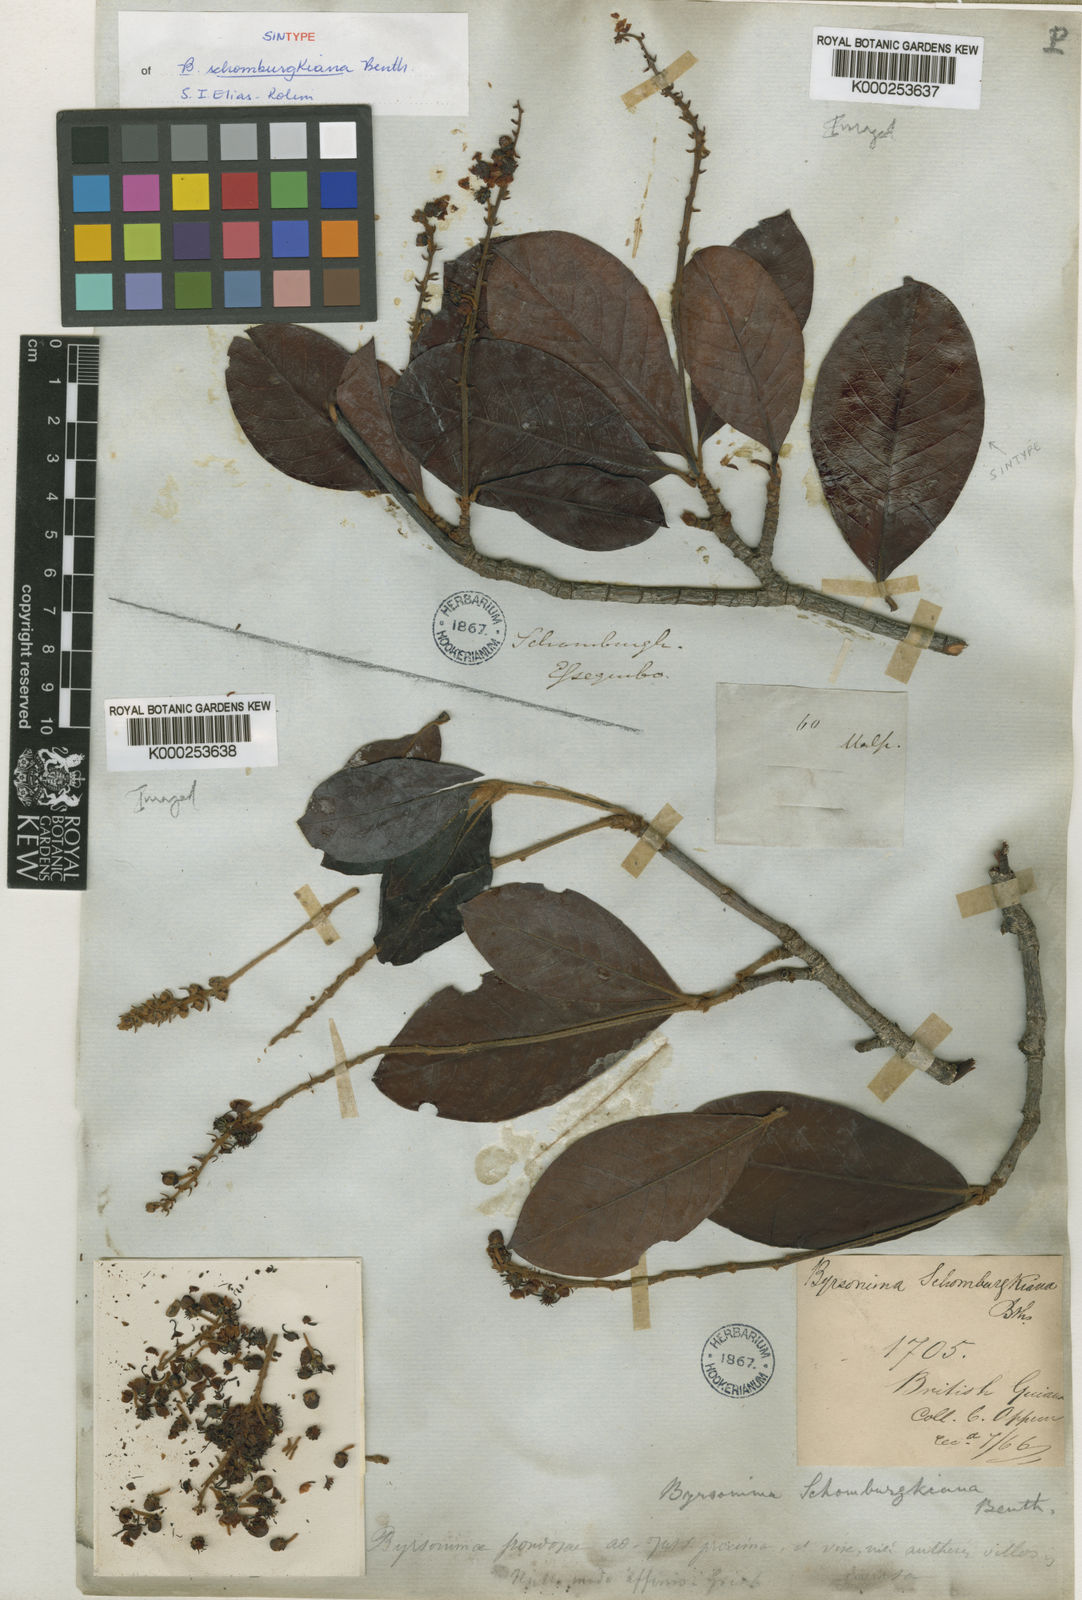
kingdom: Plantae
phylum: Tracheophyta
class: Magnoliopsida
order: Malpighiales
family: Malpighiaceae
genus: Byrsonima
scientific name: Byrsonima schomburgkiana
